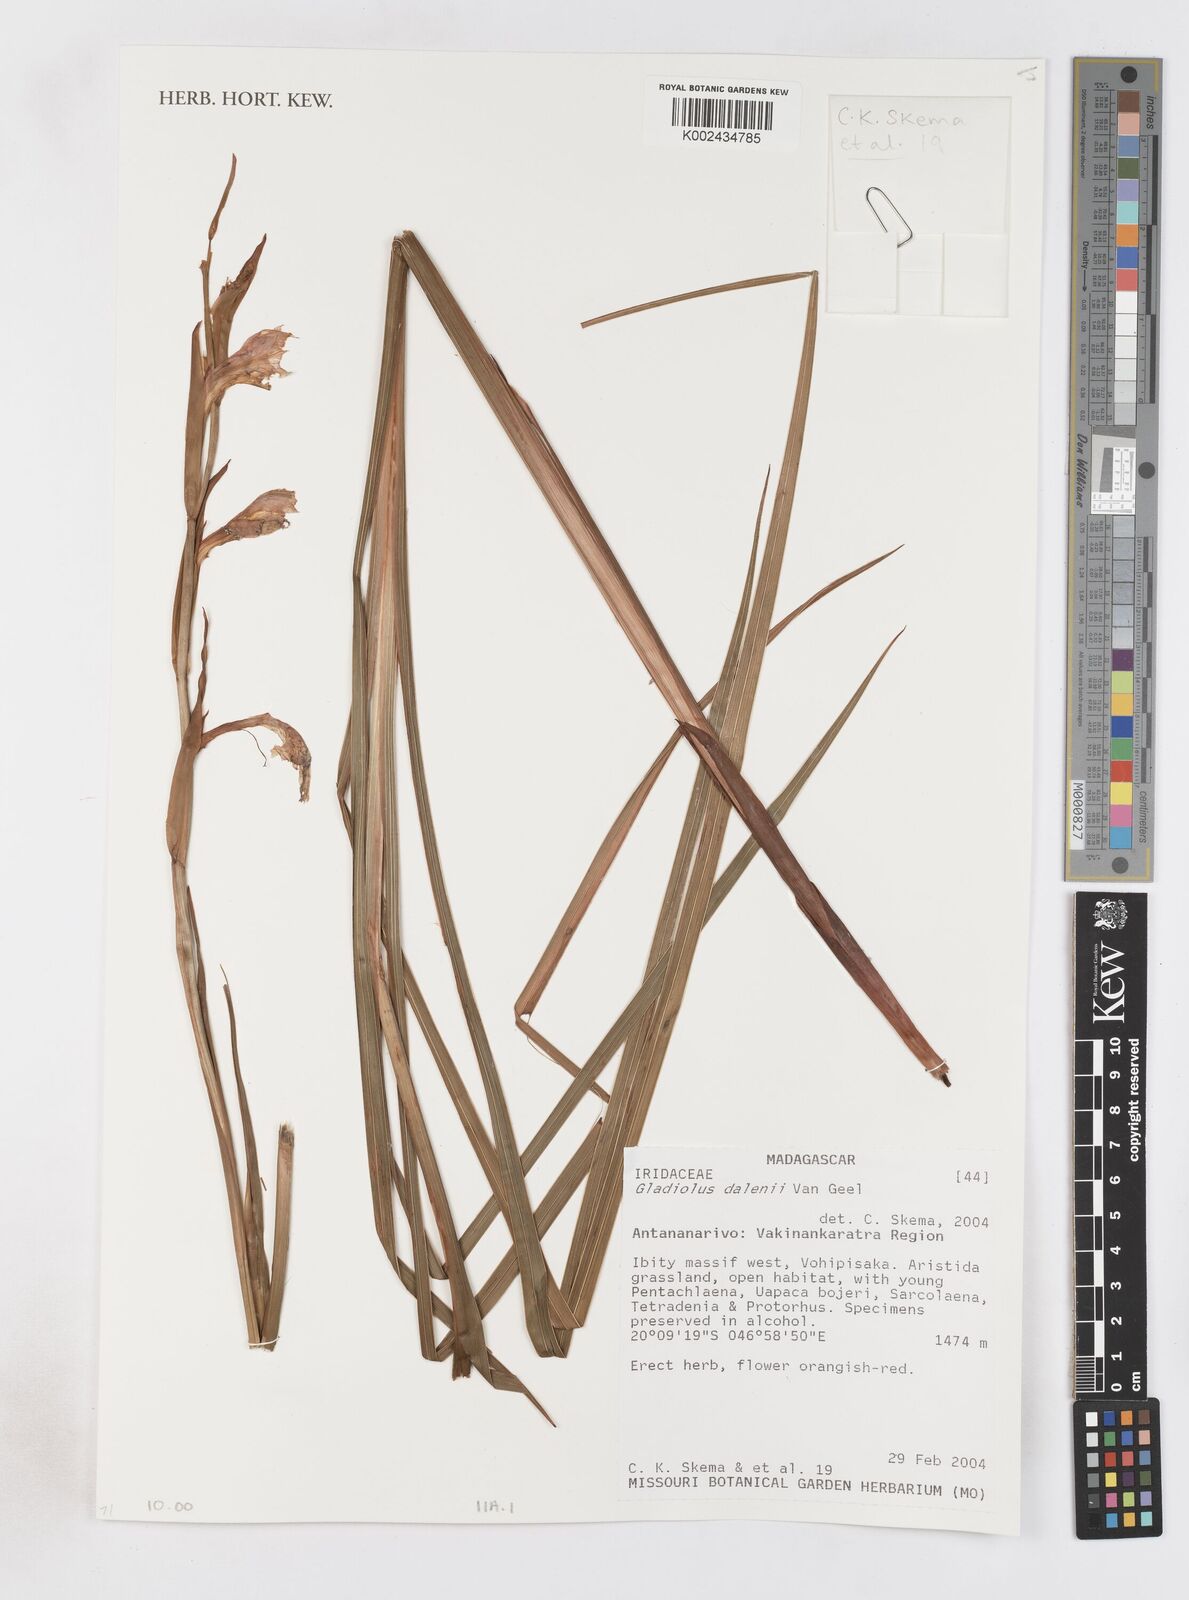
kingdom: Plantae
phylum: Tracheophyta
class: Liliopsida
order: Asparagales
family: Iridaceae
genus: Gladiolus
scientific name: Gladiolus dalenii
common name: Cornflag
